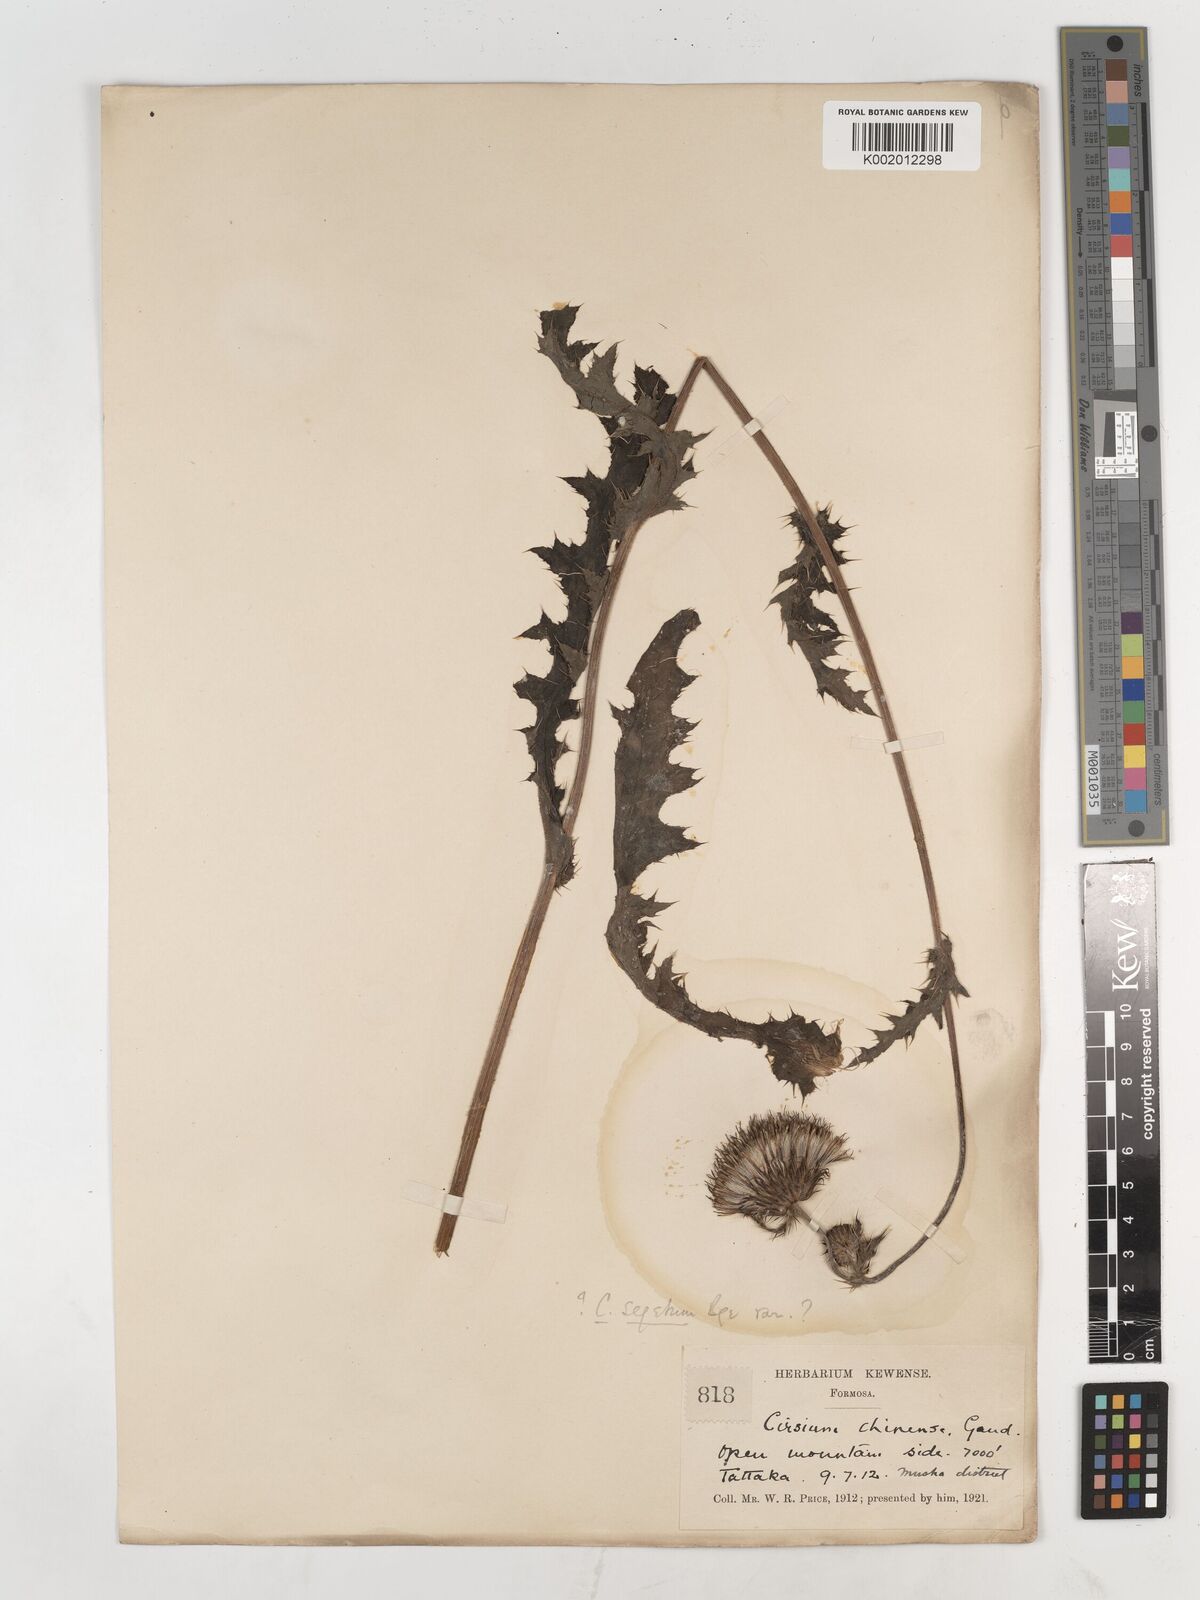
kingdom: Plantae
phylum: Tracheophyta
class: Magnoliopsida
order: Asterales
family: Asteraceae
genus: Cirsium
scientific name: Cirsium arvense
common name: Creeping thistle
